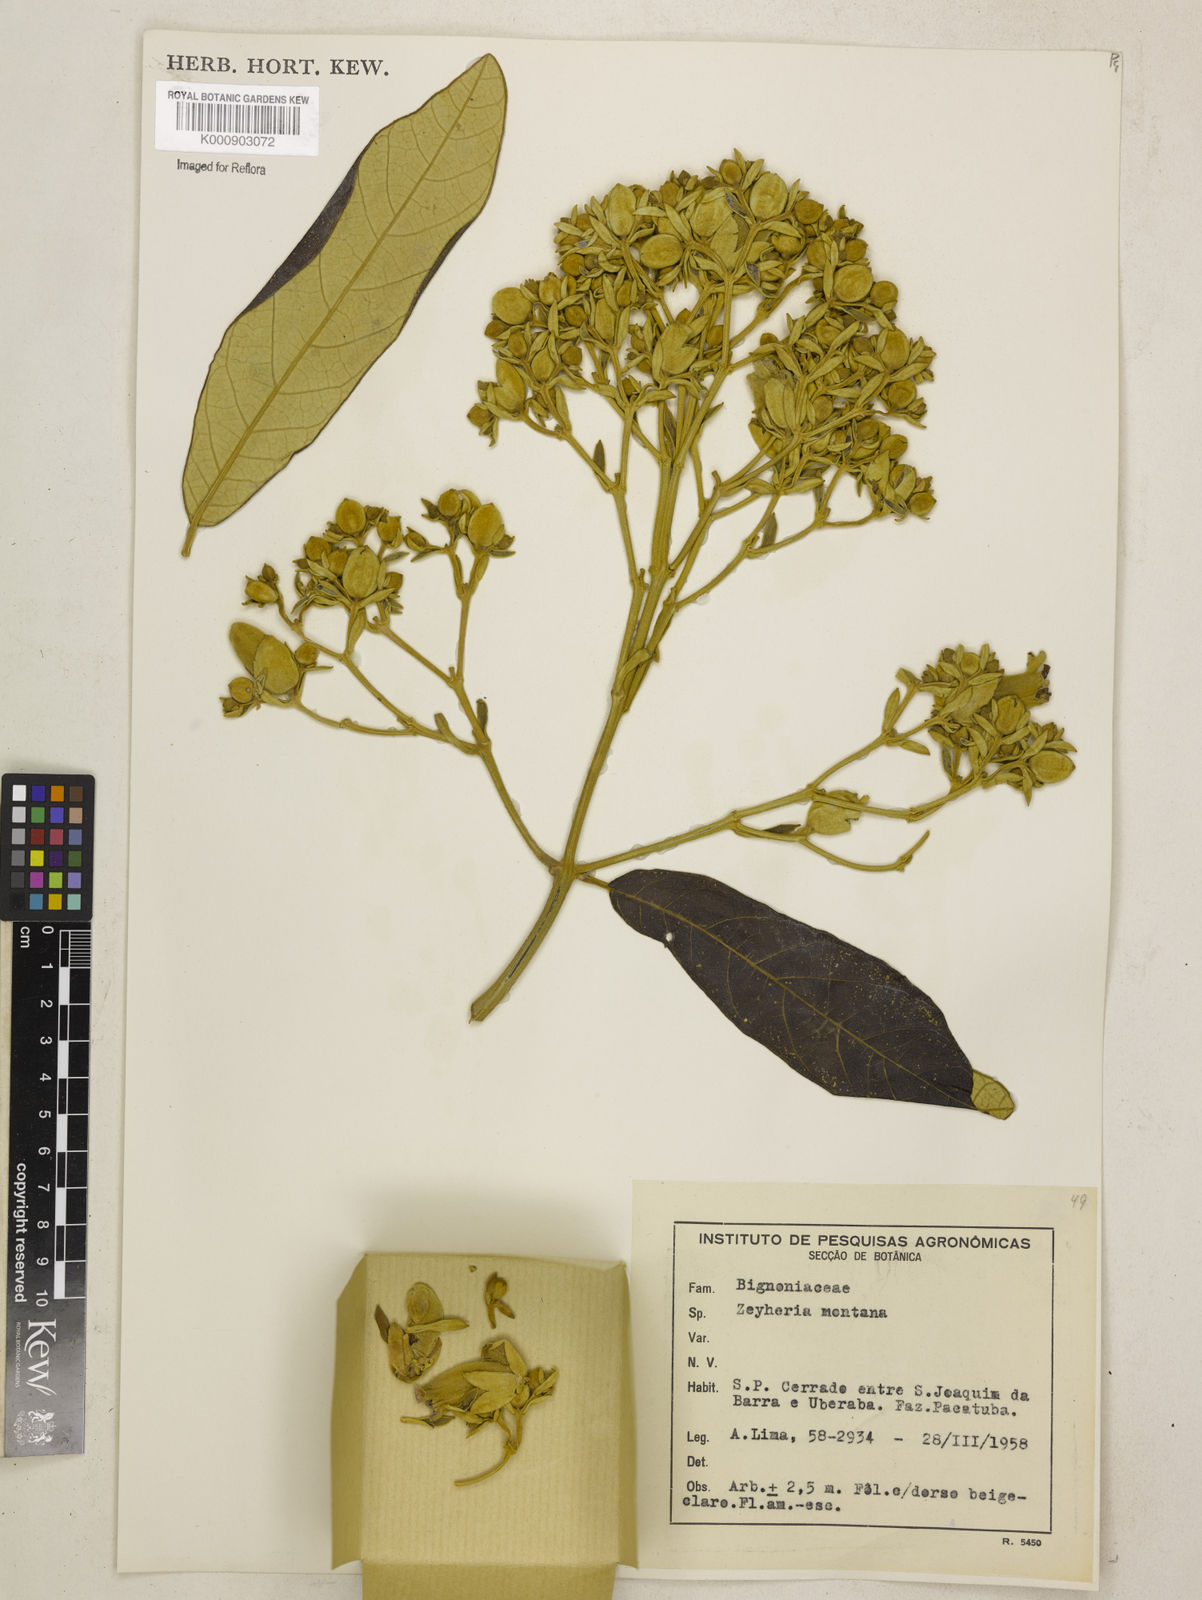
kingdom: Plantae
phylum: Tracheophyta
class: Magnoliopsida
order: Lamiales
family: Bignoniaceae
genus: Zeyheria
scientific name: Zeyheria
